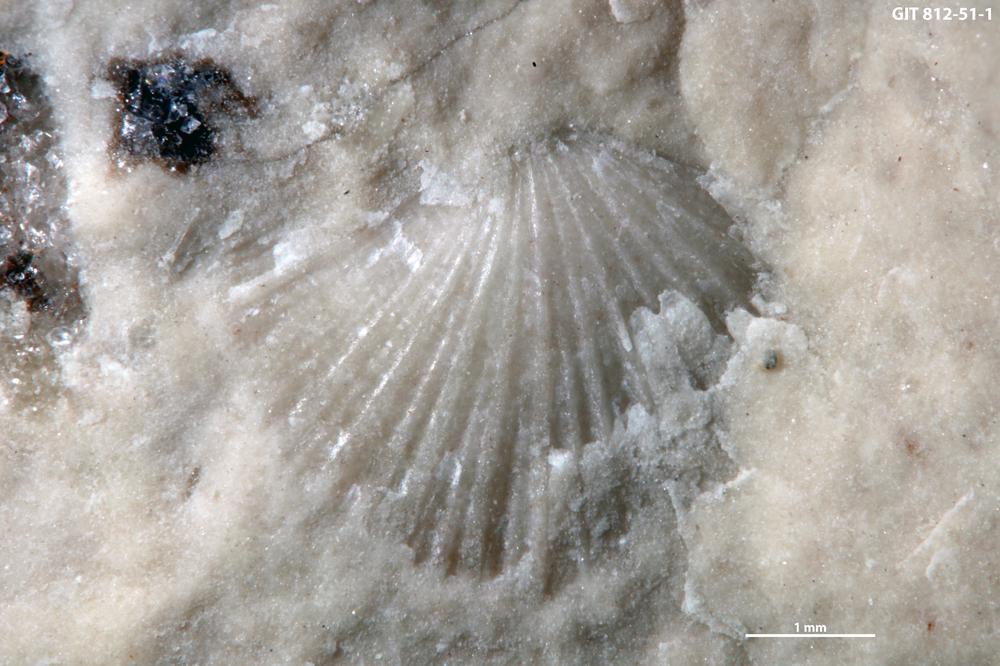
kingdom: Animalia
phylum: Brachiopoda
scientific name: Brachiopoda
